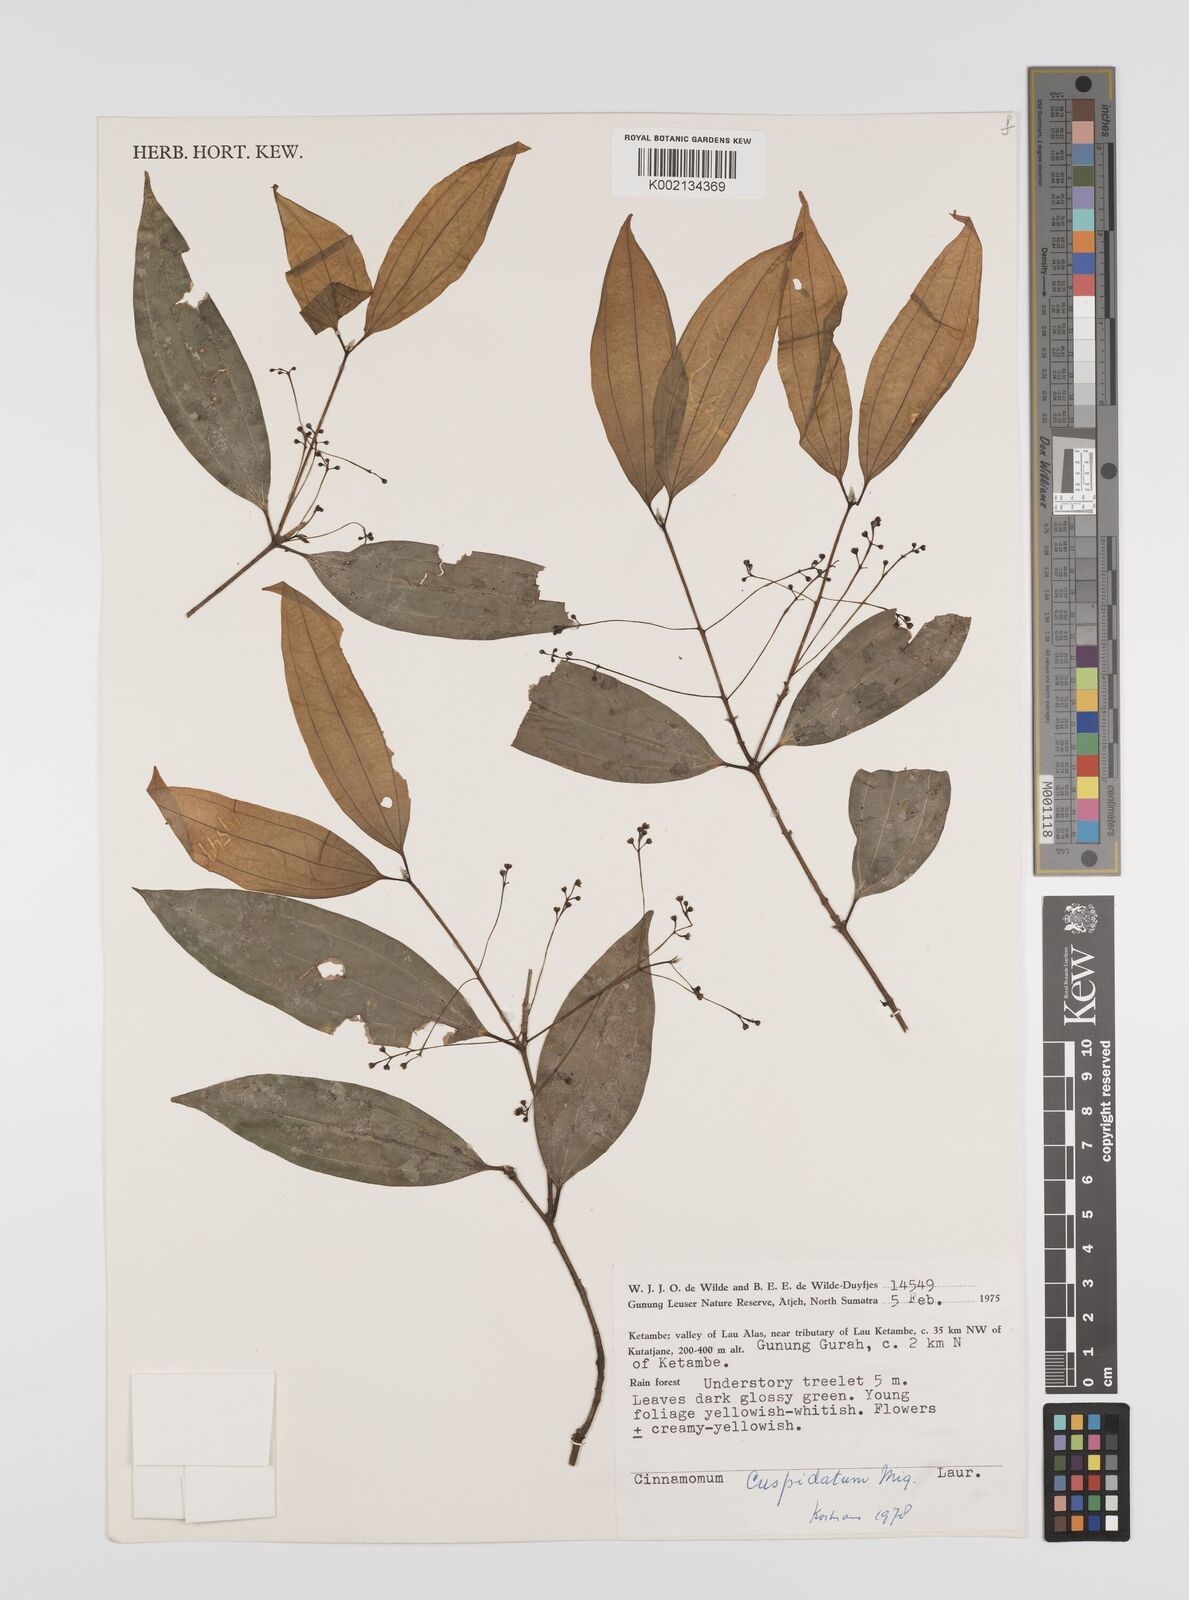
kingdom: Plantae
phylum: Tracheophyta
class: Magnoliopsida
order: Laurales
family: Lauraceae
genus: Cinnamomum
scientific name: Cinnamomum cuspidatum
